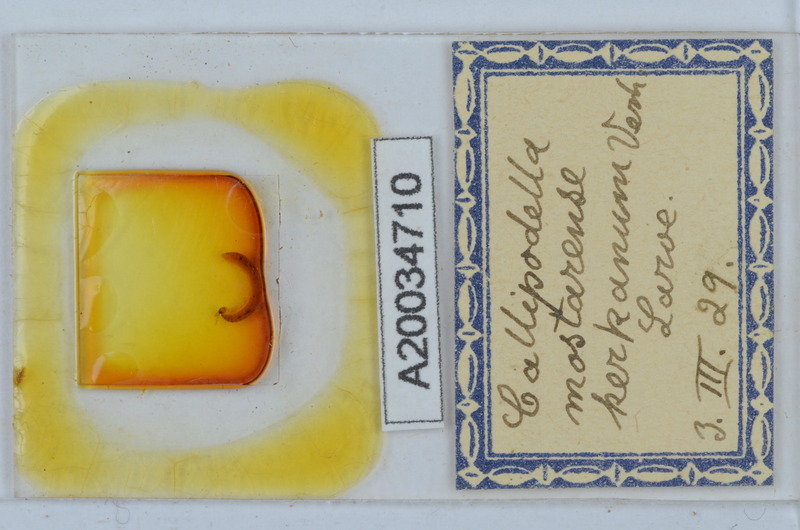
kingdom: Animalia
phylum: Arthropoda
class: Diplopoda
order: Callipodida
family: Schizopetalidae
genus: Callipodella
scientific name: Callipodella mostarensis
